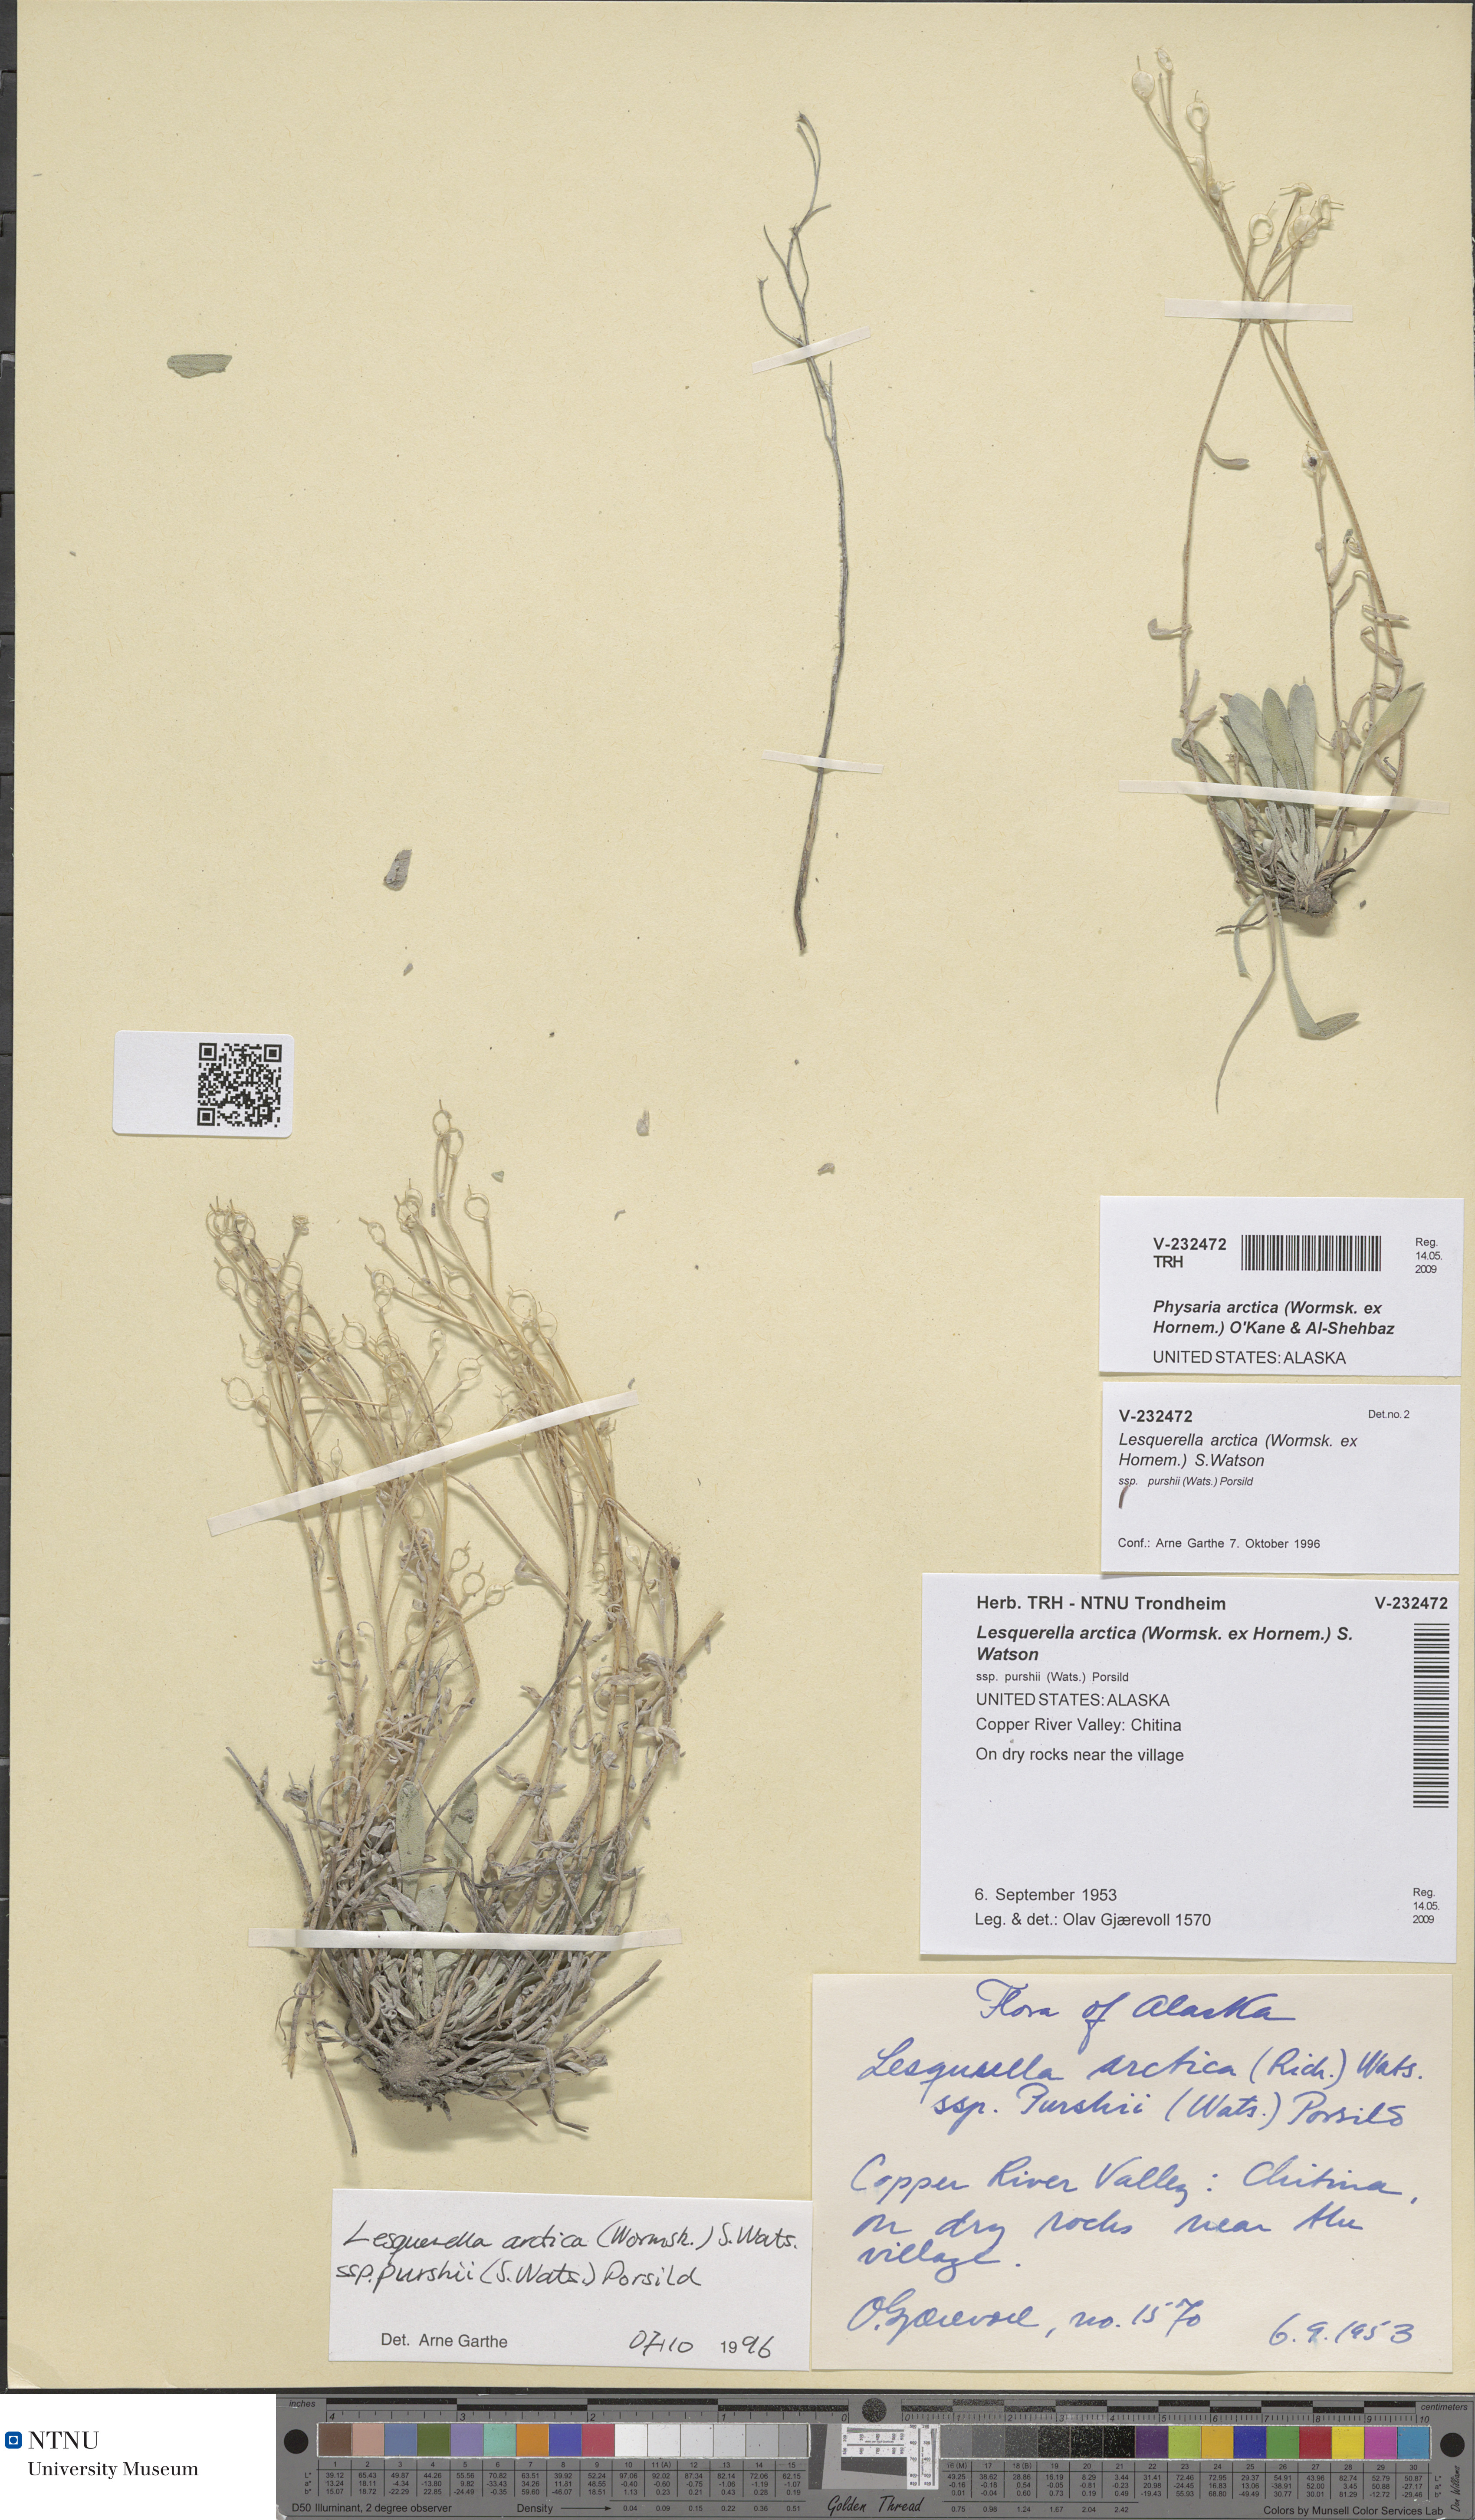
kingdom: Plantae
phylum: Tracheophyta
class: Magnoliopsida
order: Brassicales
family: Brassicaceae
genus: Physaria
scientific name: Physaria arctica
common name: Arctic bladderpod
